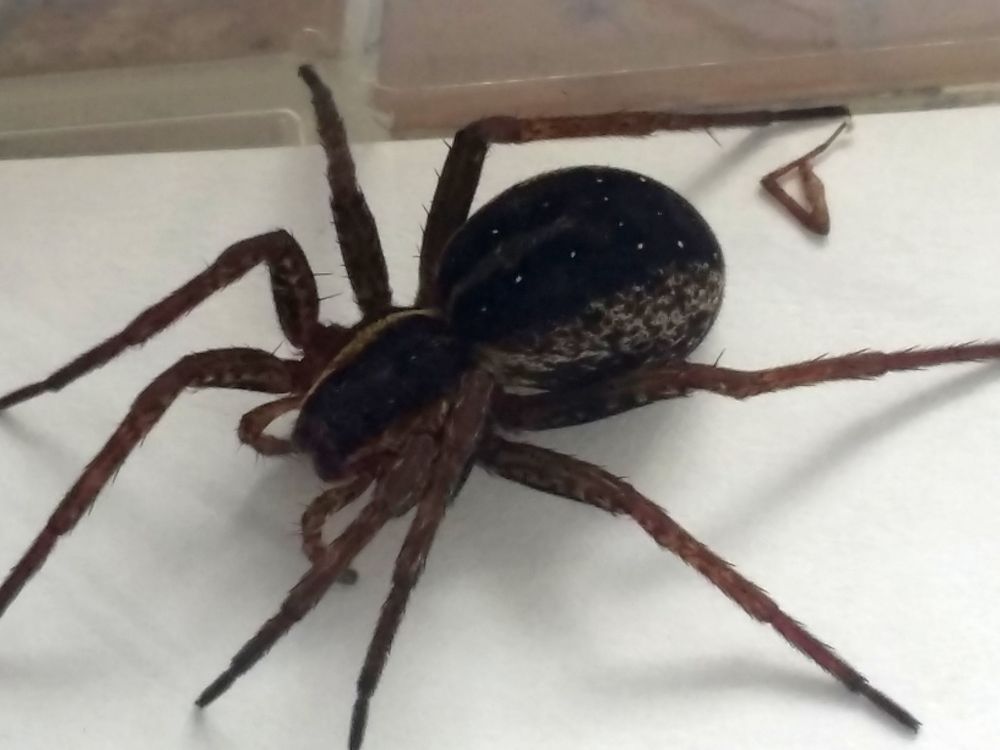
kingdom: Animalia
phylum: Arthropoda
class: Arachnida
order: Araneae
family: Pisauridae
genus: Dolomedes
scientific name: Dolomedes
